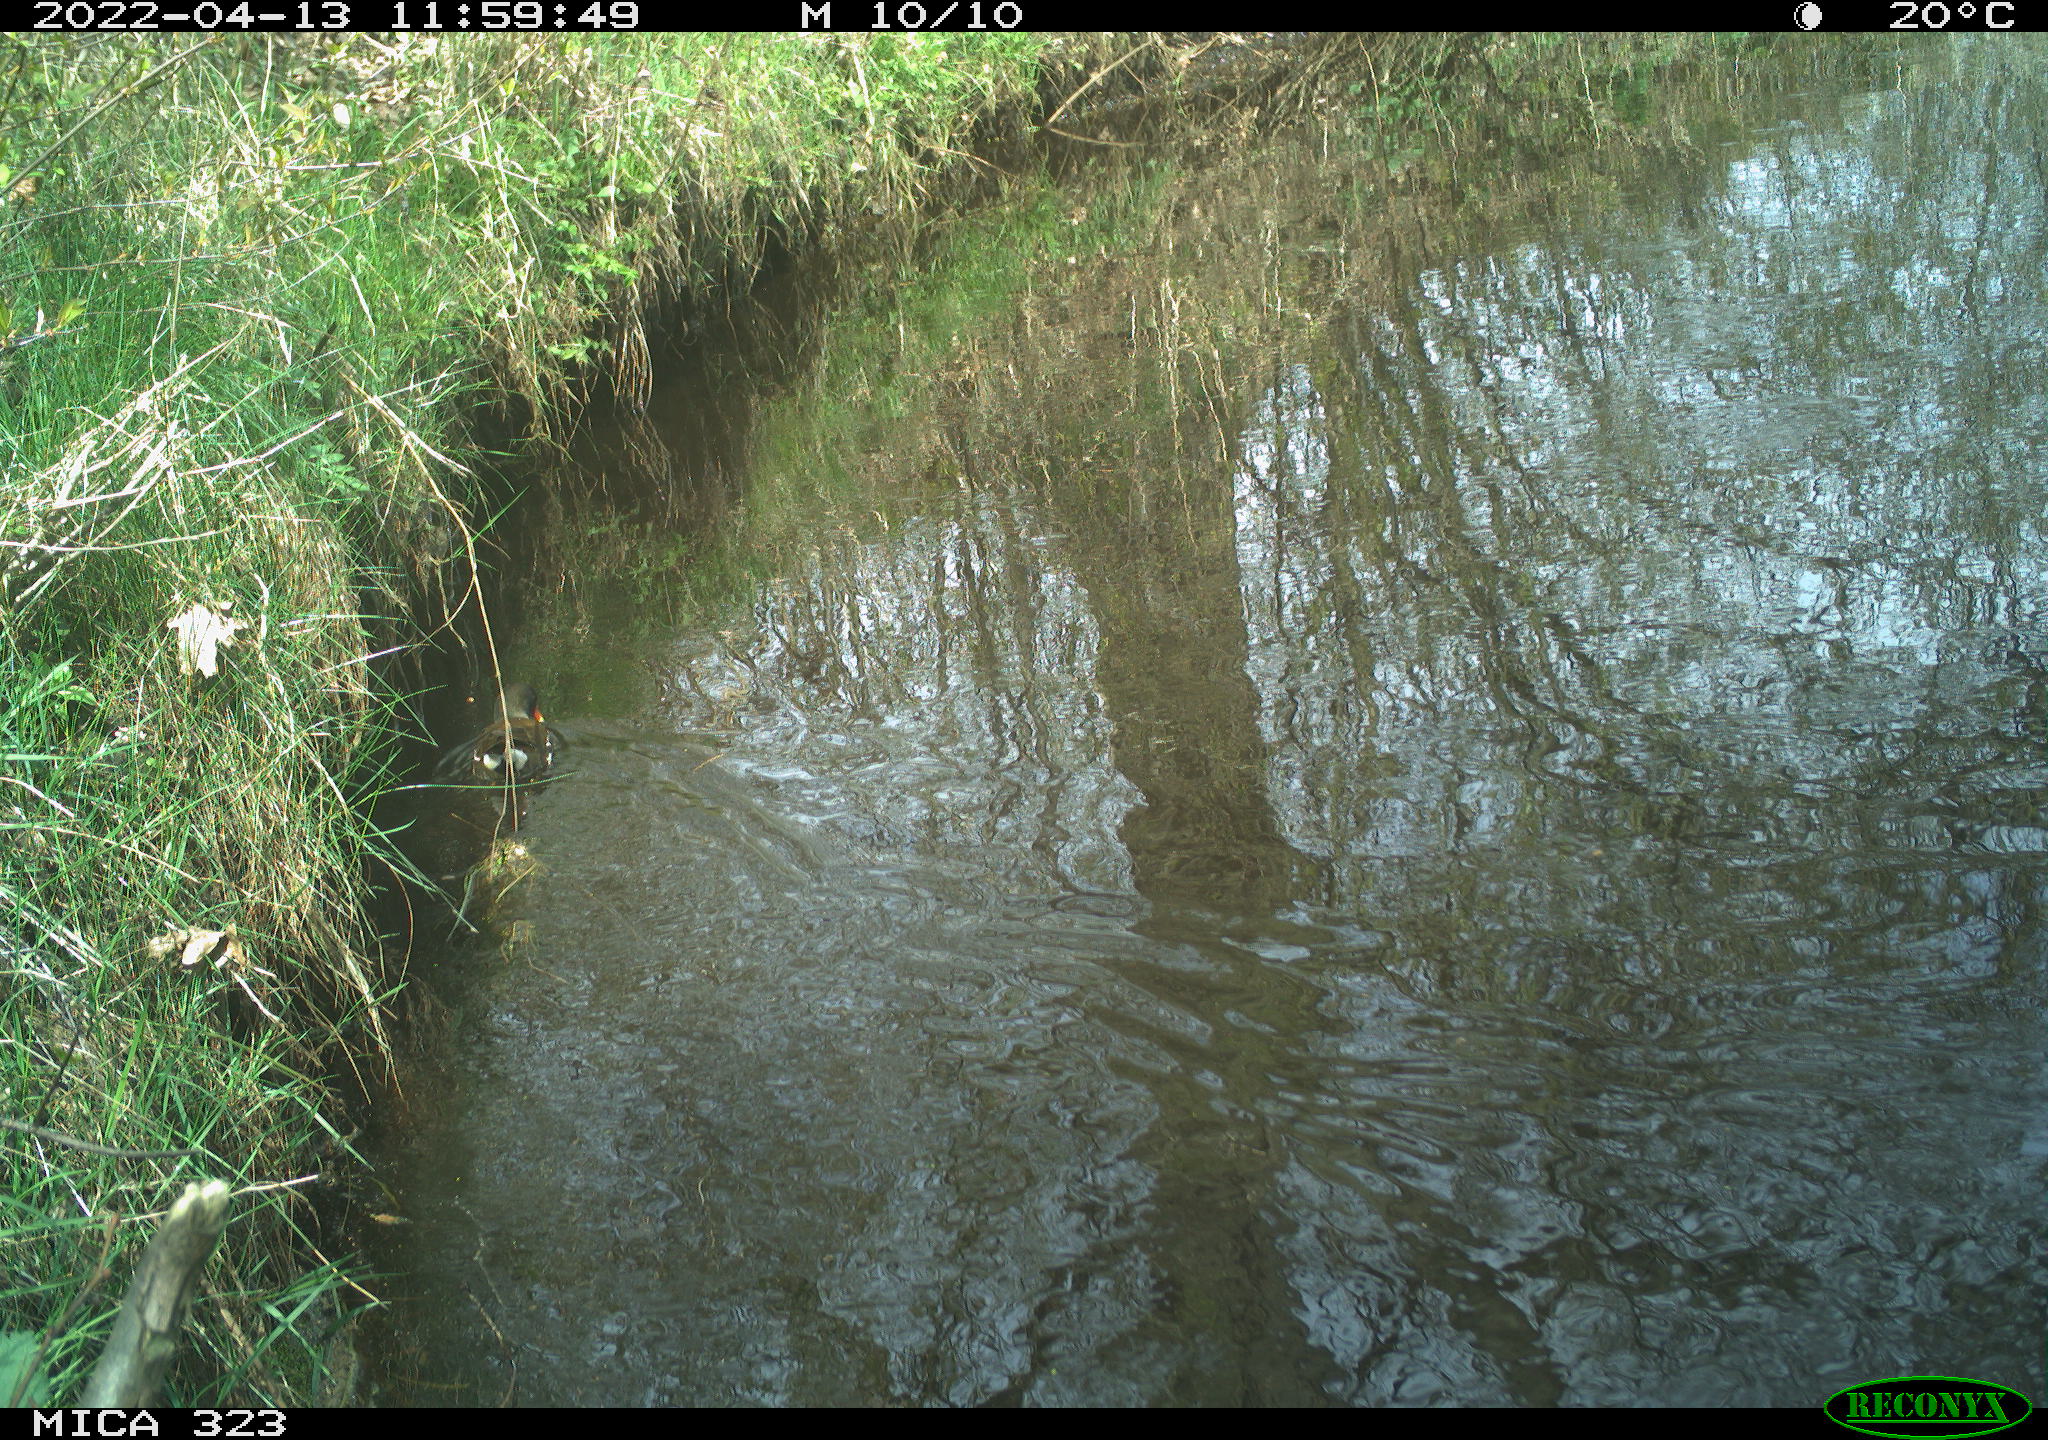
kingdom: Animalia
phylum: Chordata
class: Aves
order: Gruiformes
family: Rallidae
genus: Gallinula
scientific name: Gallinula chloropus
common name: Common moorhen
